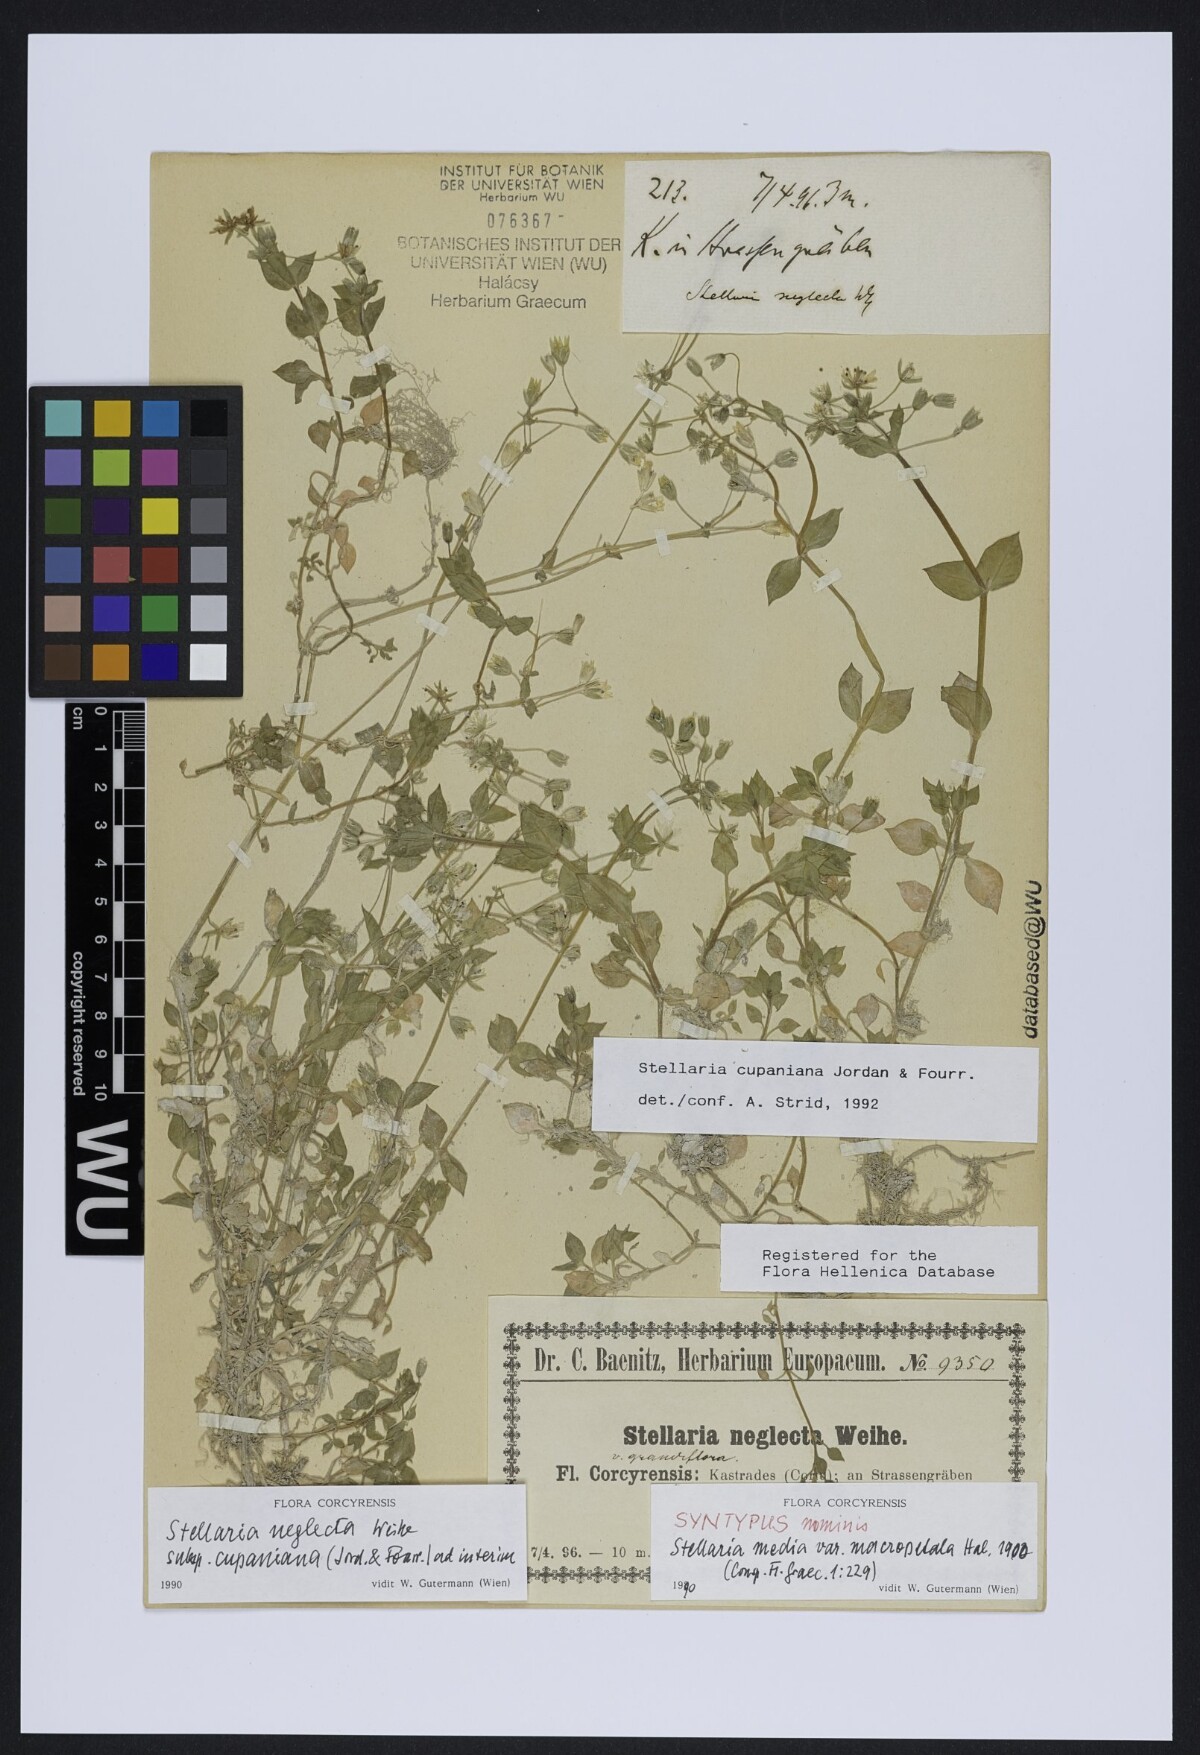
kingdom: Plantae
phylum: Tracheophyta
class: Magnoliopsida
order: Caryophyllales
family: Caryophyllaceae
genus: Stellaria
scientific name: Stellaria cupaniana
